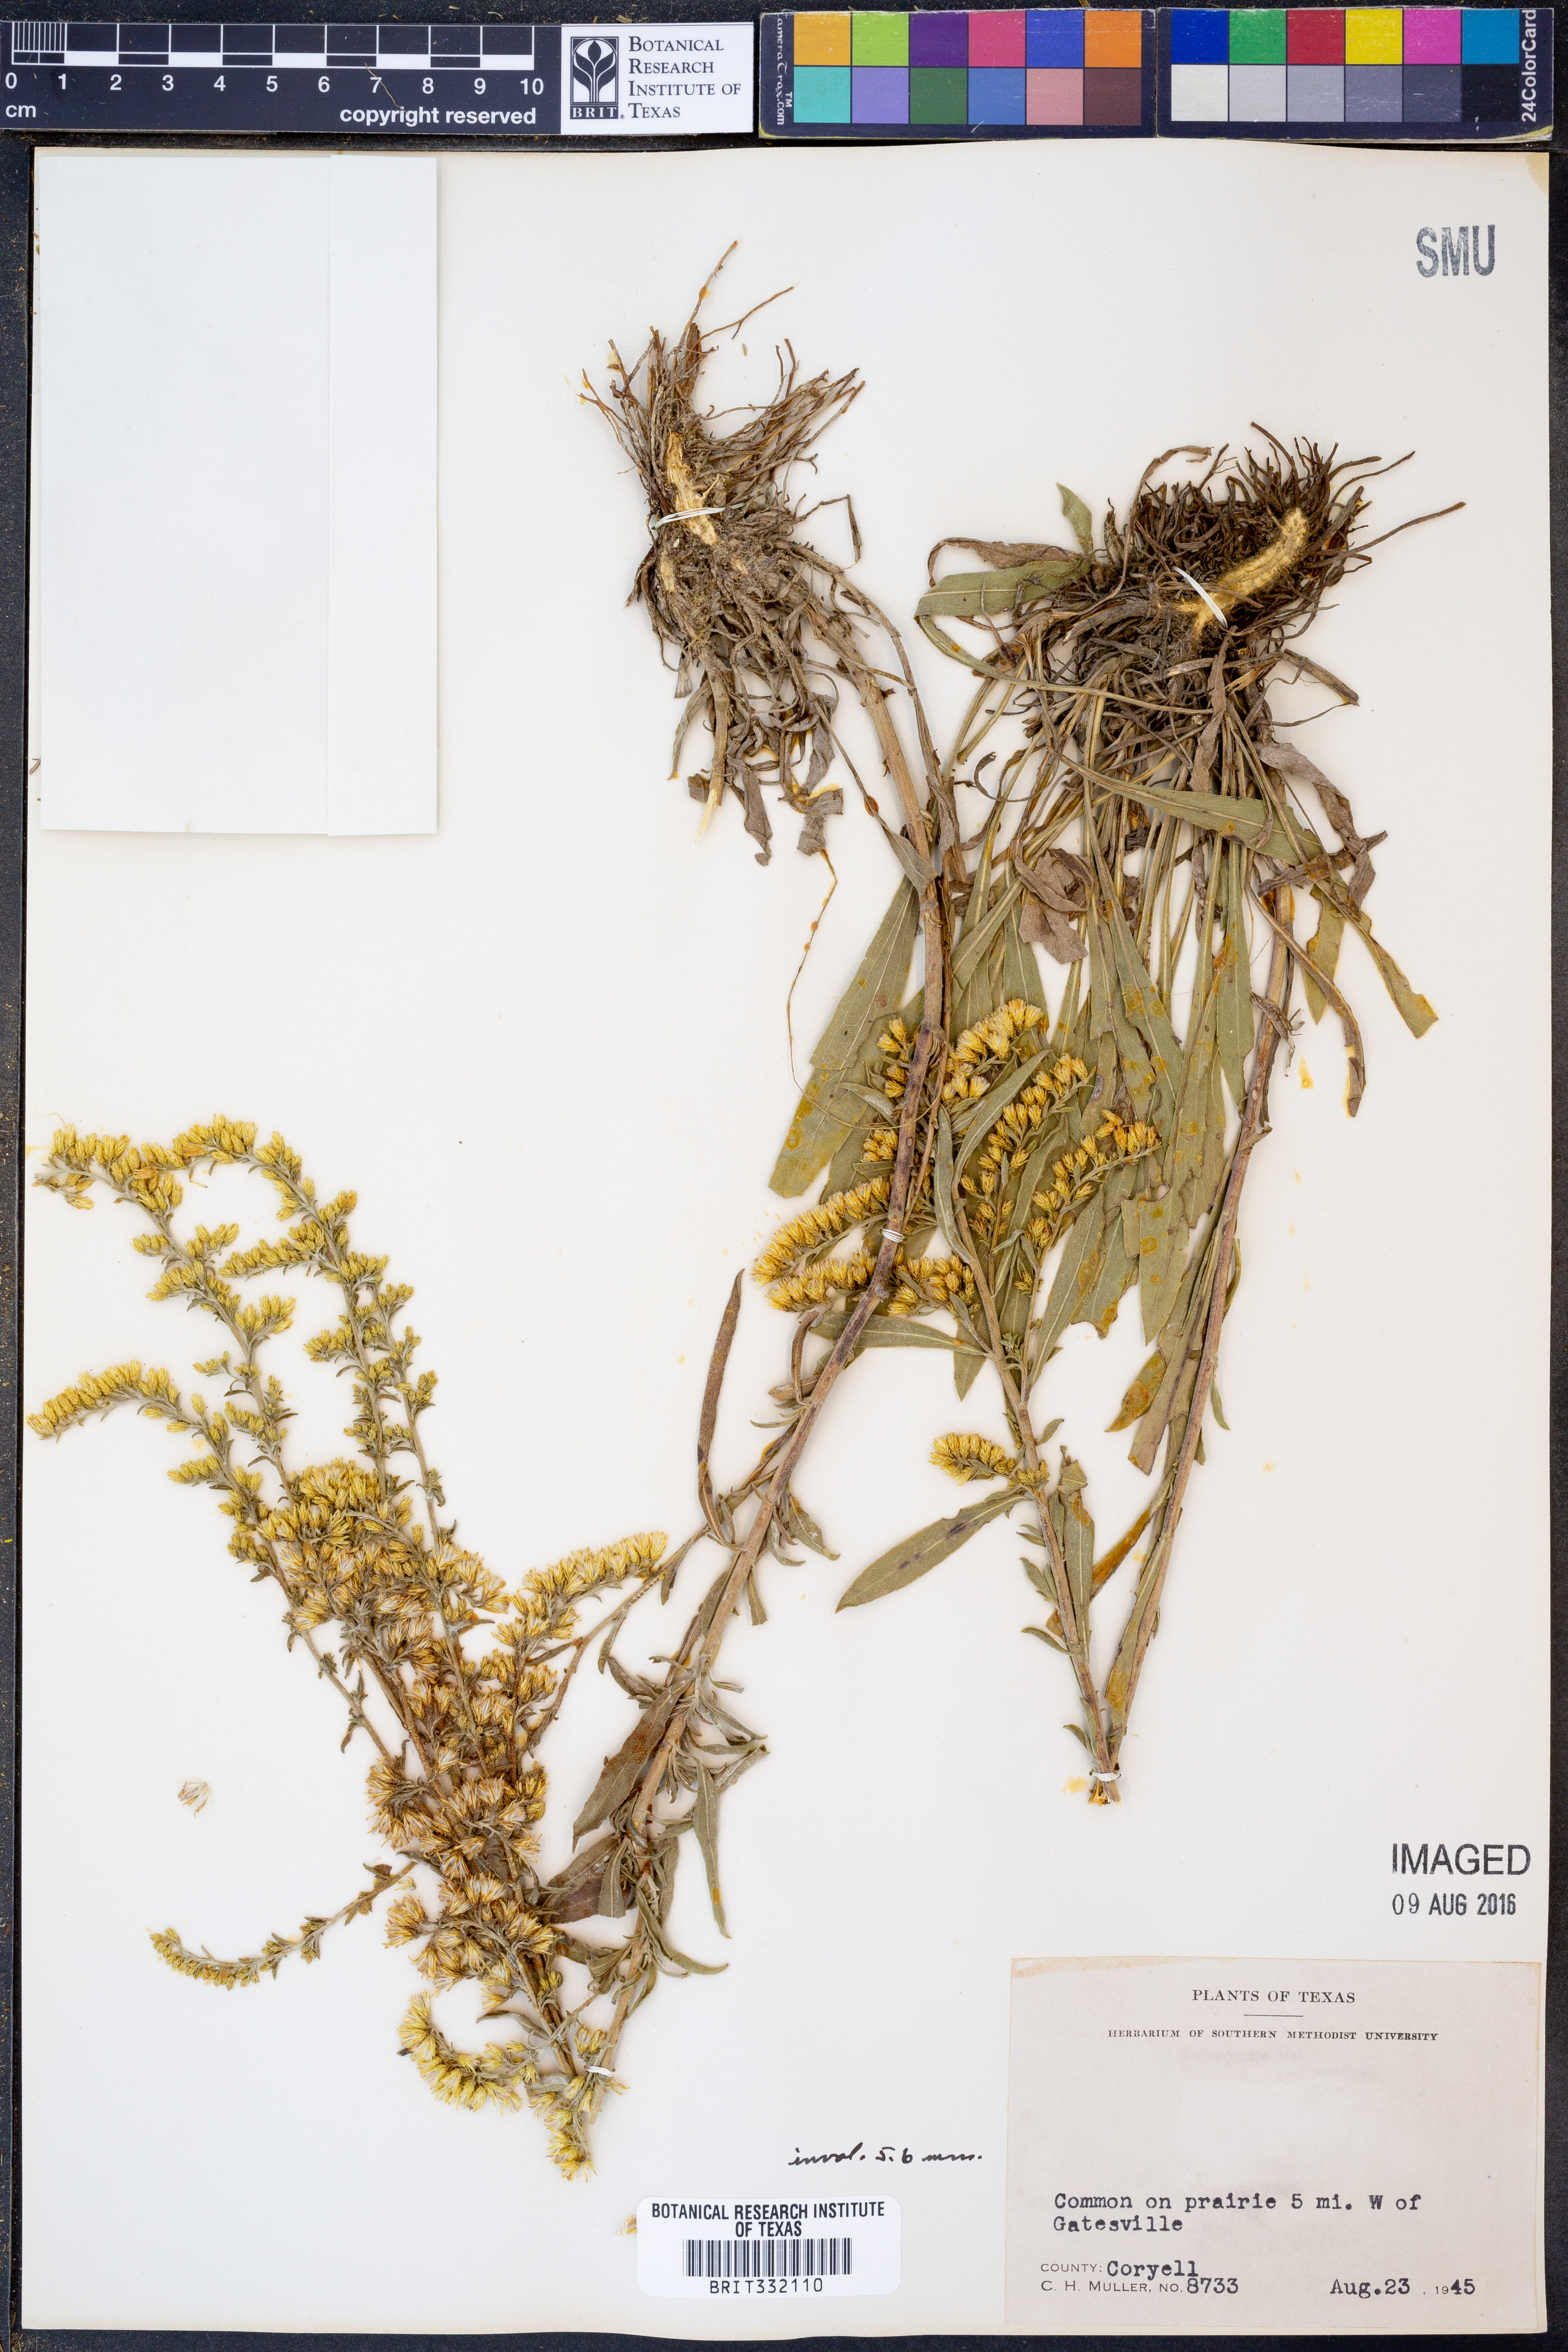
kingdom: Plantae
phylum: Tracheophyta
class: Magnoliopsida
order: Asterales
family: Asteraceae
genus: Solidago
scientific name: Solidago nemoralis
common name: Grey goldenrod
